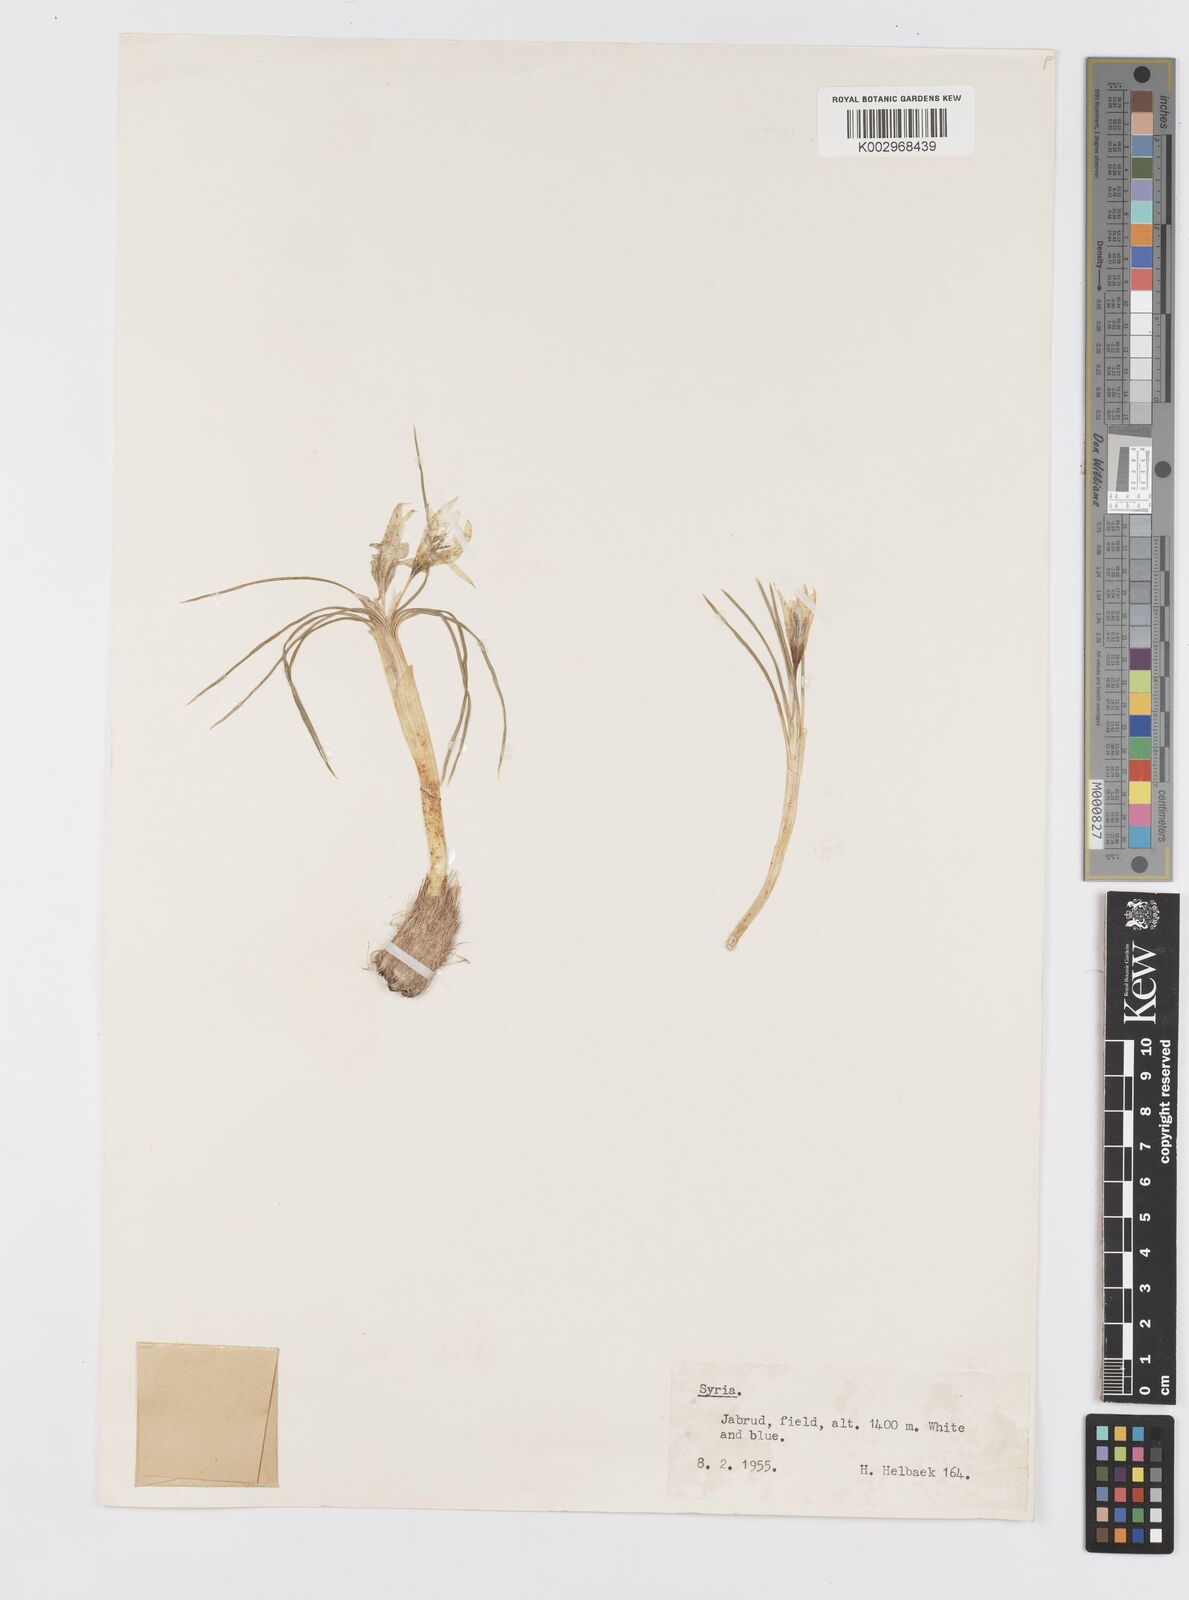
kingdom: Plantae
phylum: Tracheophyta
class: Liliopsida
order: Asparagales
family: Iridaceae
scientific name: Iridaceae
